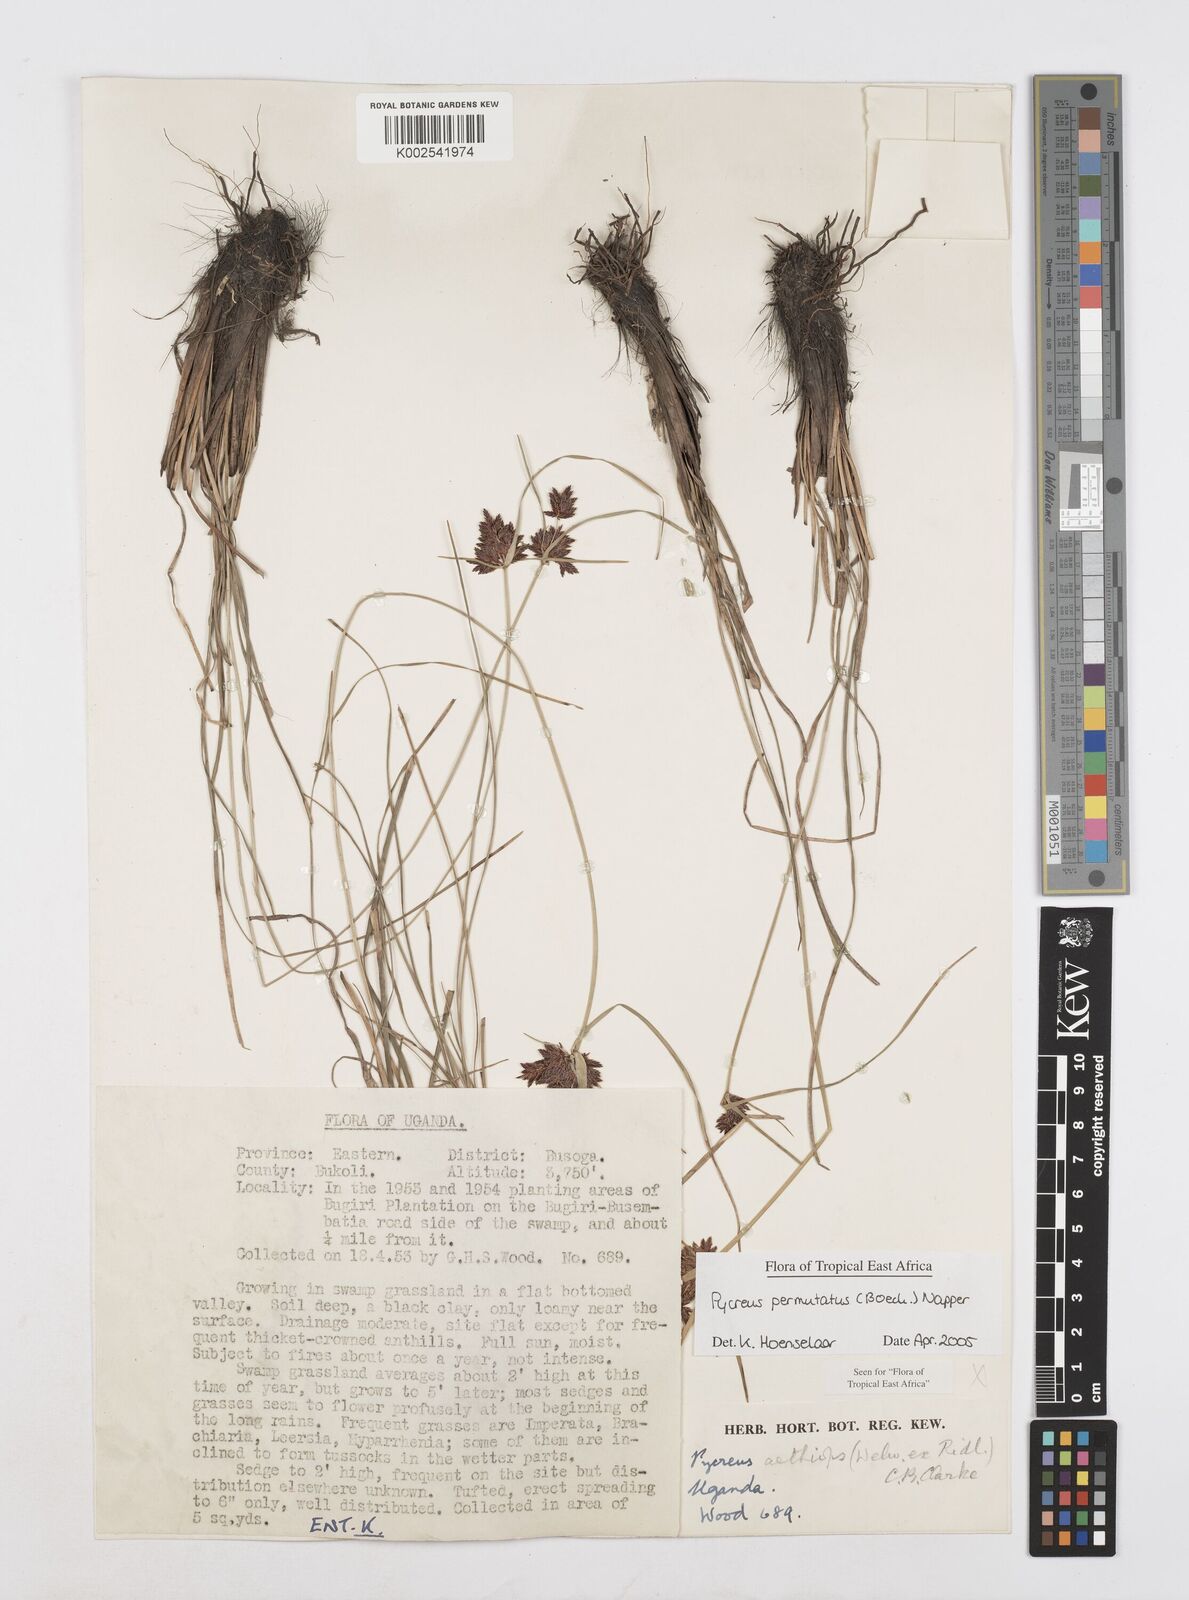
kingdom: Plantae
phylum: Tracheophyta
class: Liliopsida
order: Poales
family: Cyperaceae
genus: Cyperus
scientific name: Cyperus nigricans
